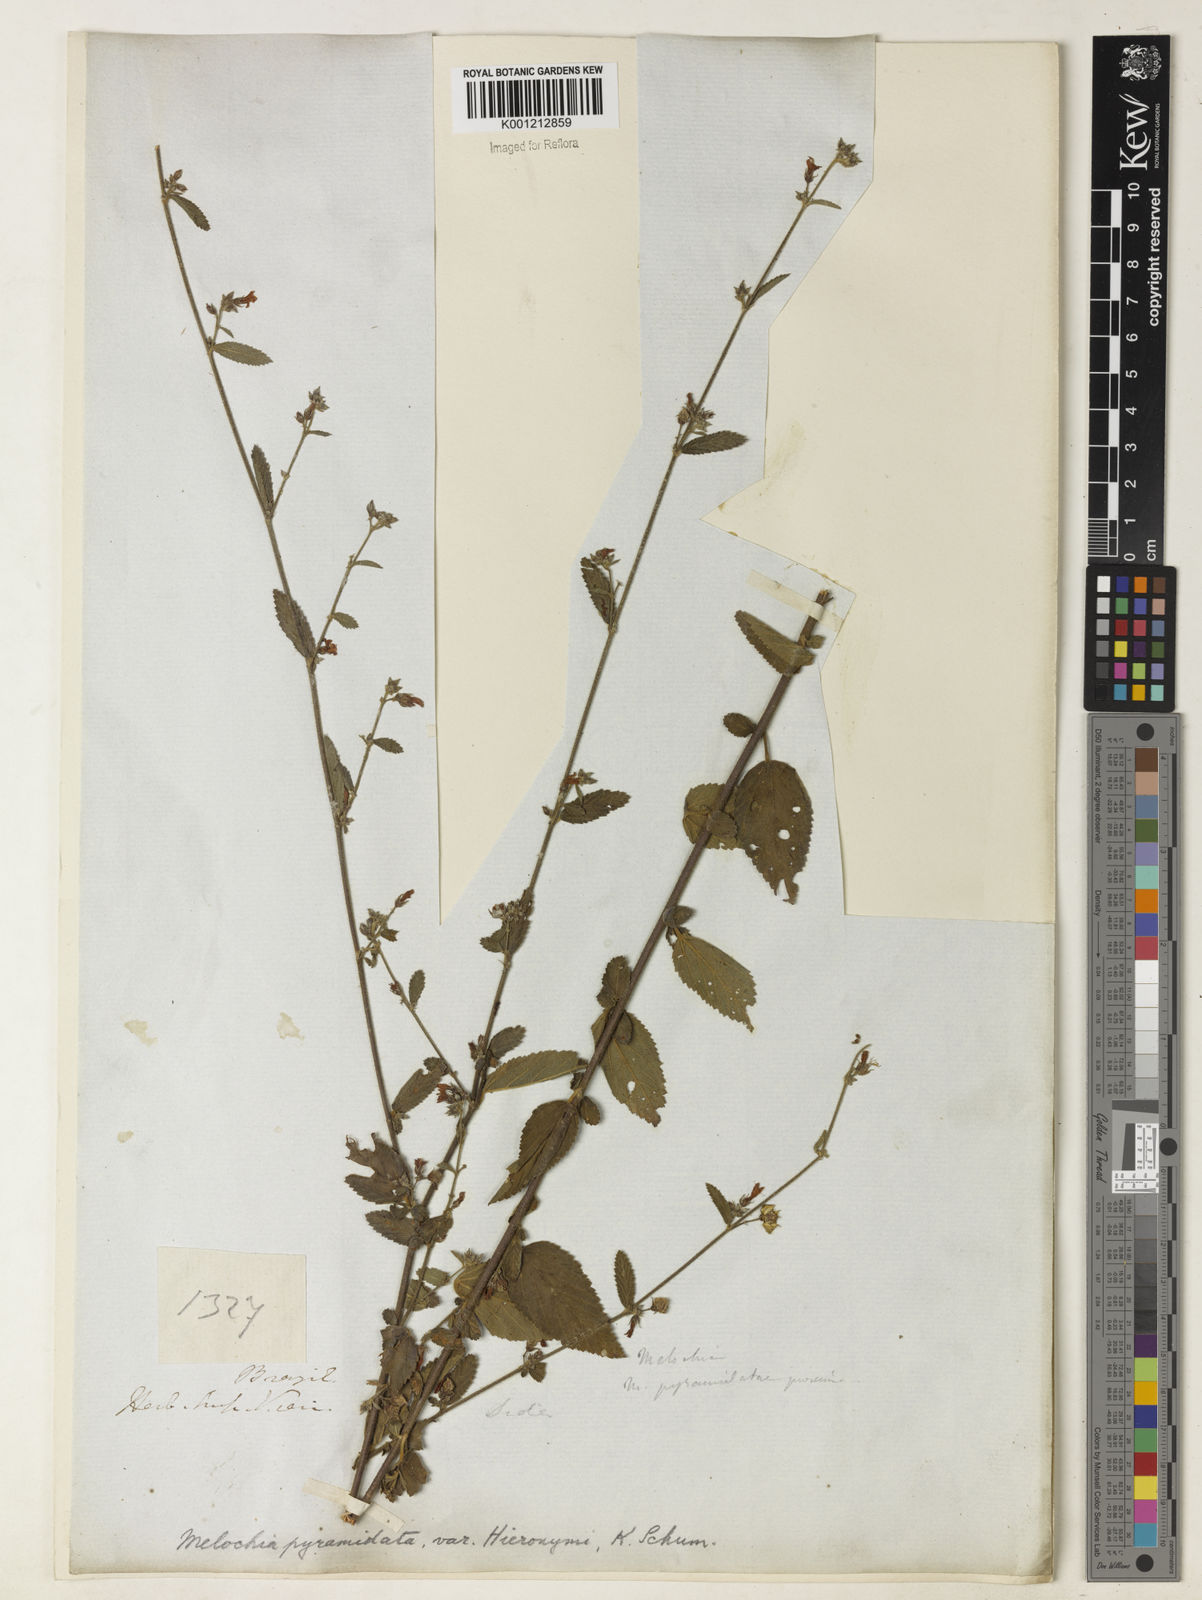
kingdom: Plantae
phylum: Tracheophyta
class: Magnoliopsida
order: Malvales
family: Malvaceae
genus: Melochia
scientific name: Melochia pyramidata
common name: Pyramidflower
